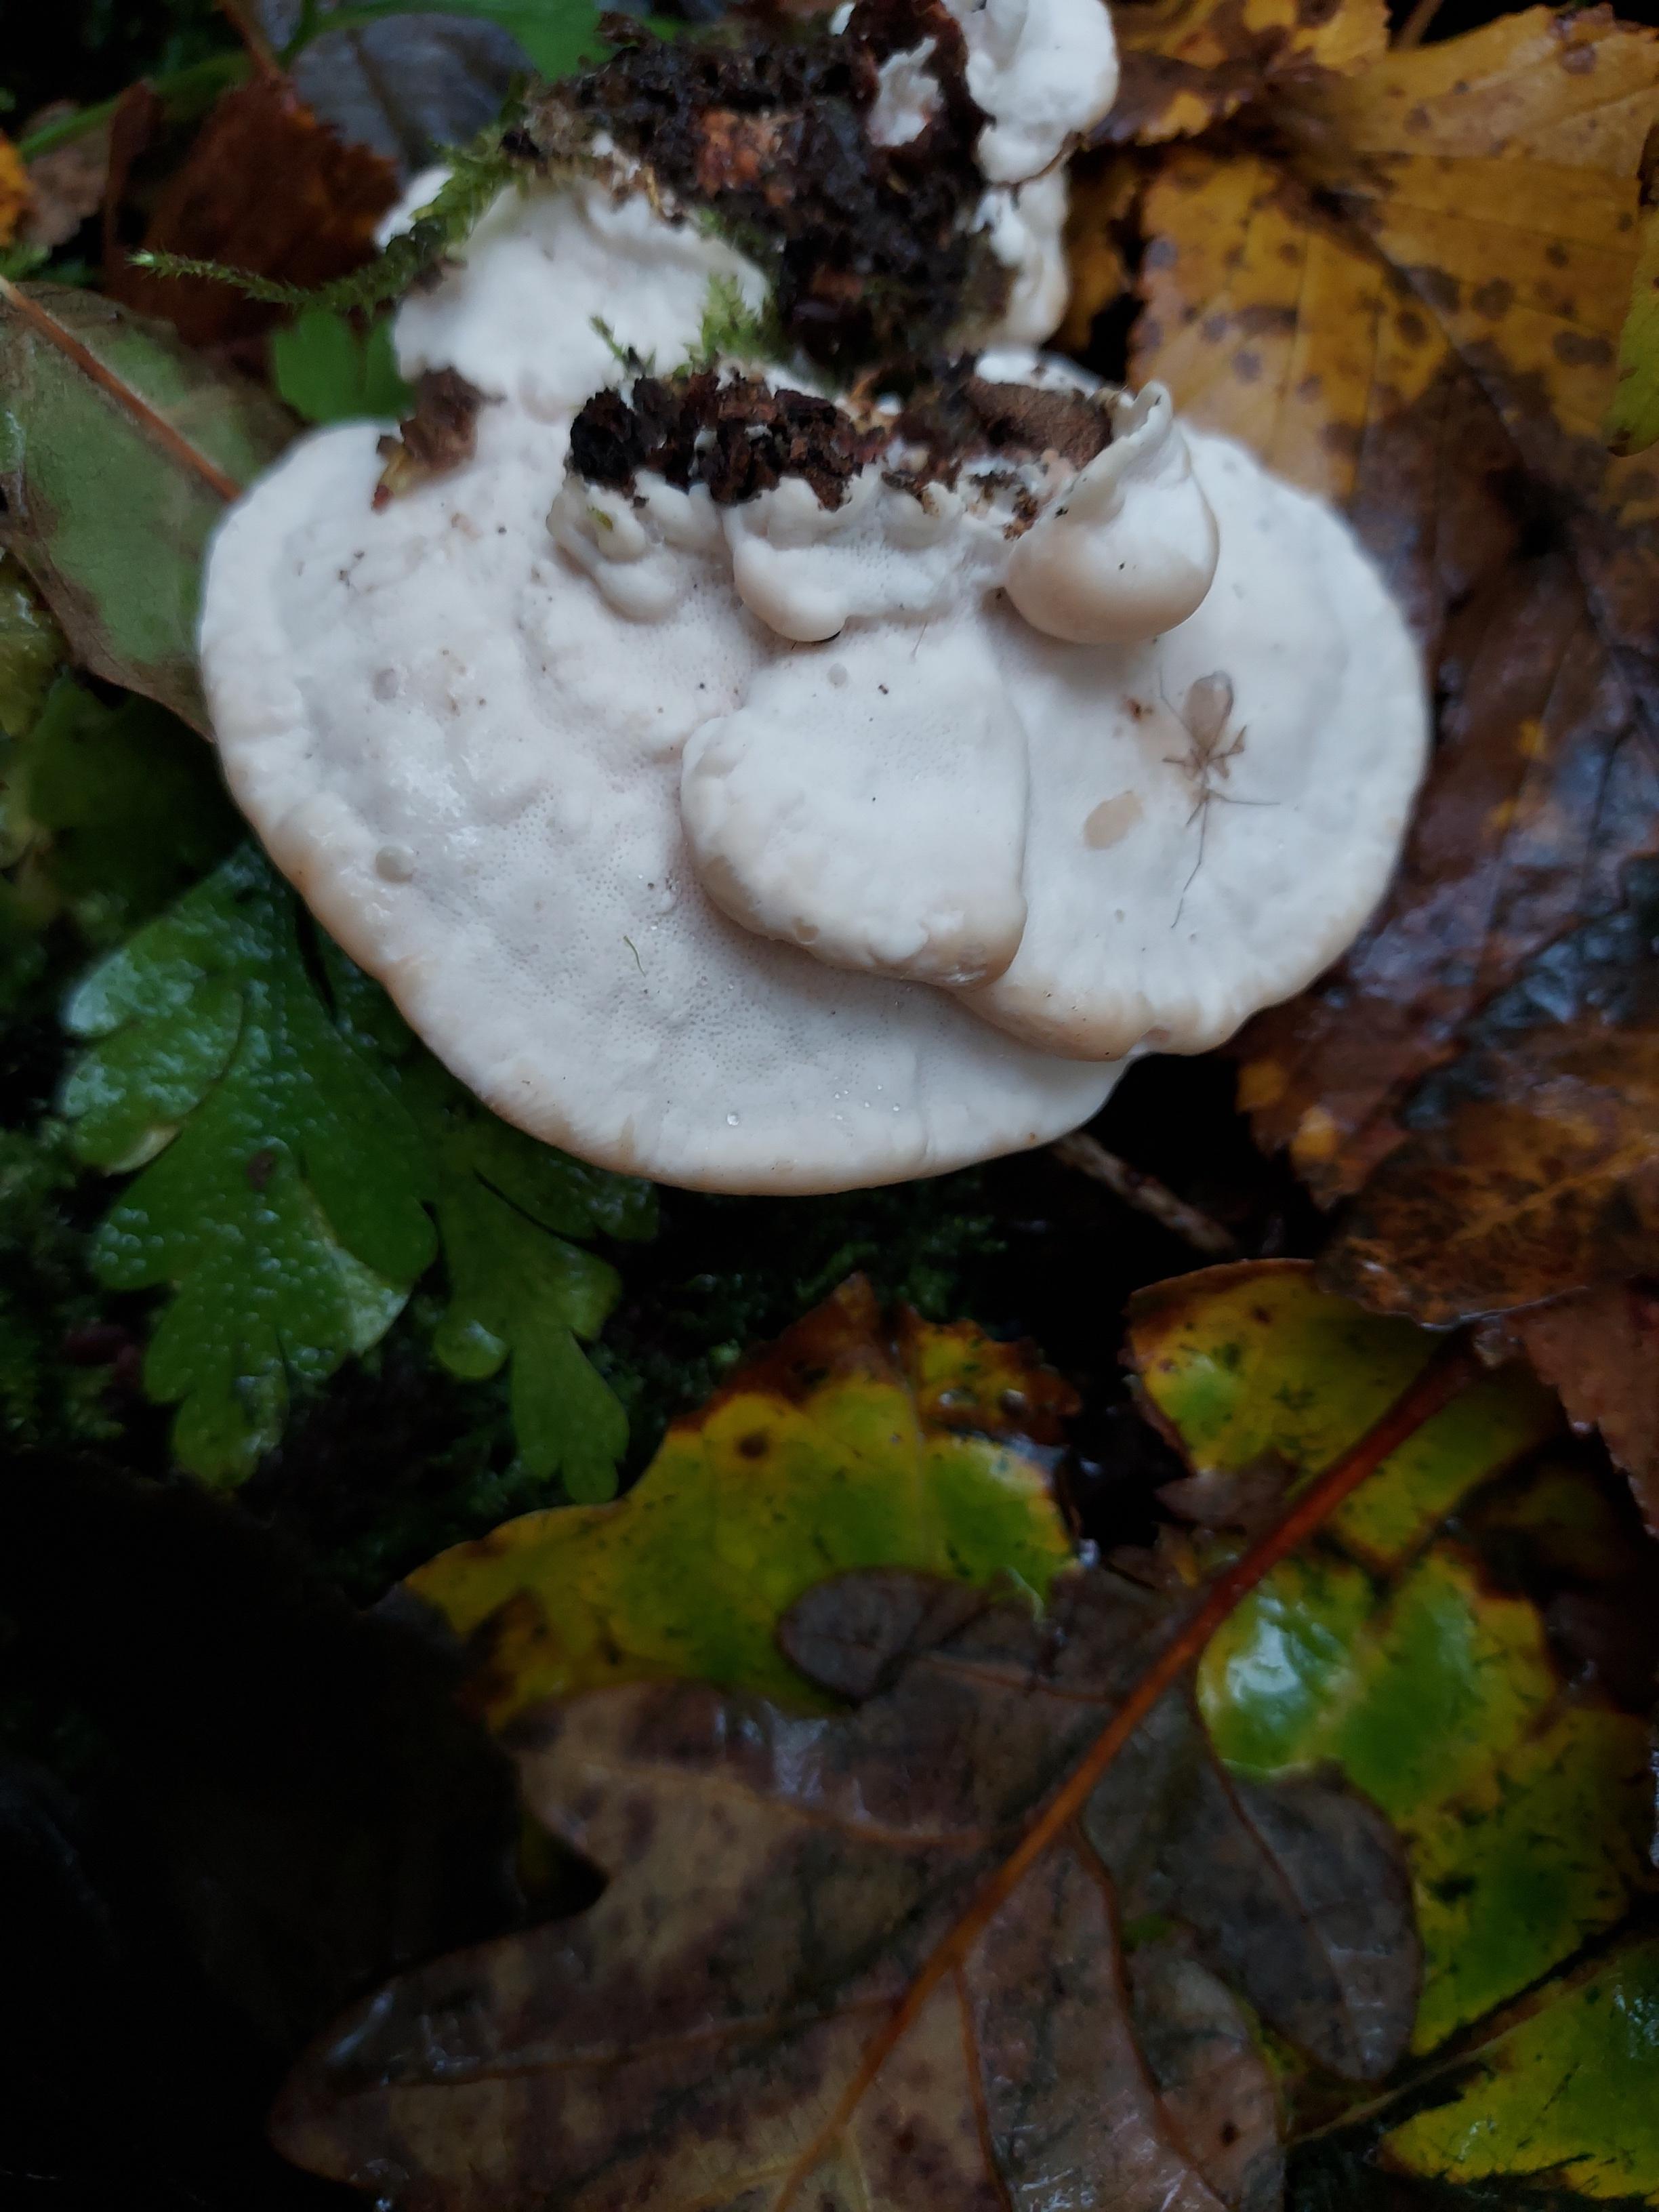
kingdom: Fungi
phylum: Basidiomycota
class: Agaricomycetes
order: Polyporales
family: Polyporaceae
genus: Trametes
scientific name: Trametes gibbosa
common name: puklet læderporesvamp
